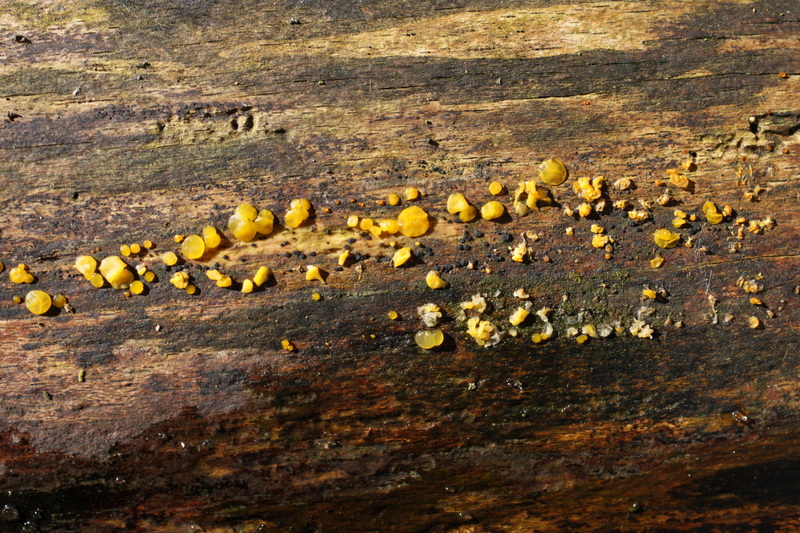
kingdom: Fungi
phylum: Basidiomycota
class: Dacrymycetes
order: Dacrymycetales
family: Dacrymycetaceae
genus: Dacrymyces
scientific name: Dacrymyces lacrymalis
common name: rynket tåresvamp
